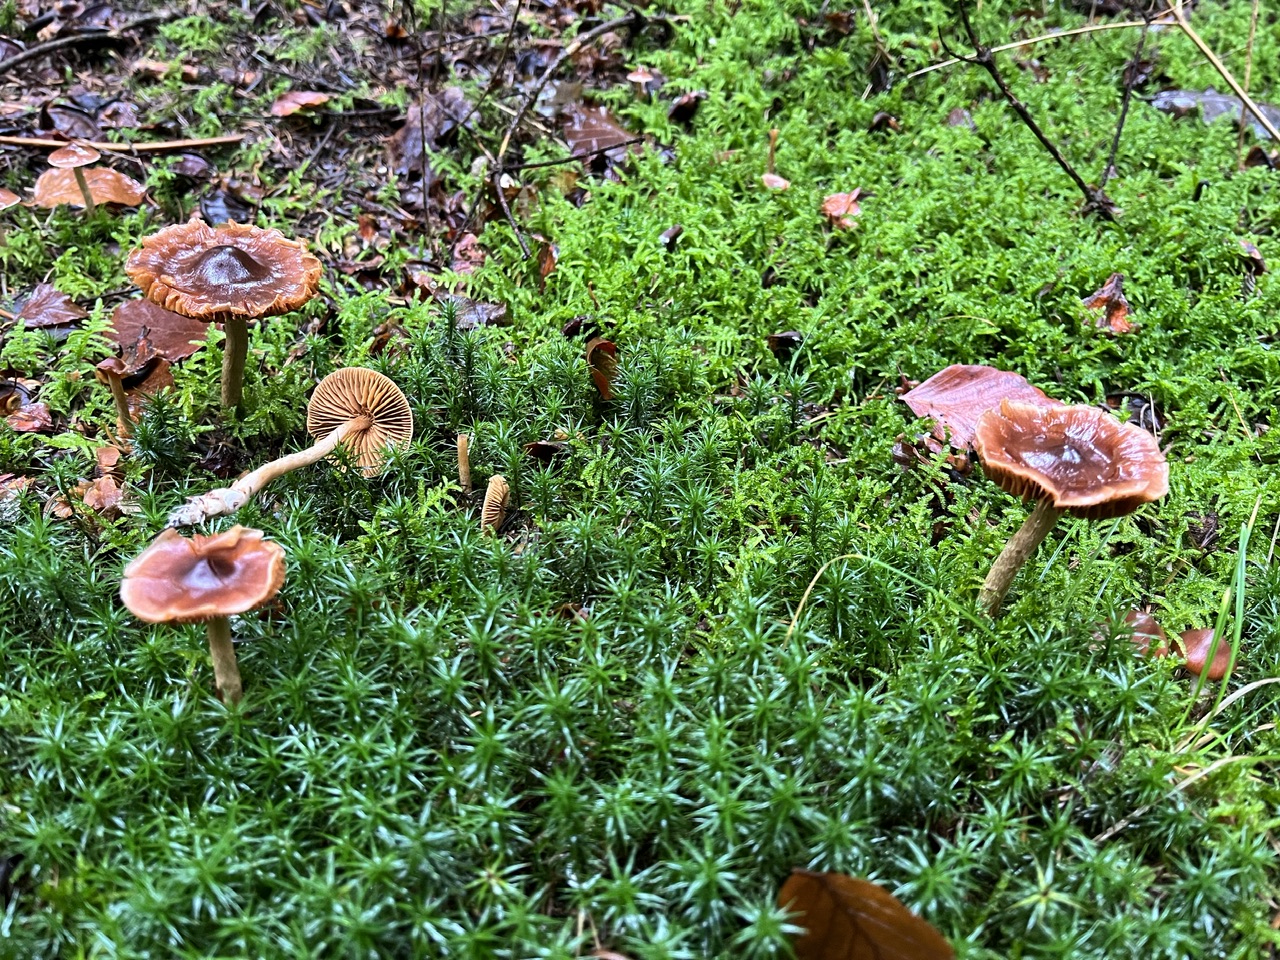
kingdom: Fungi
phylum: Basidiomycota
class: Agaricomycetes
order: Agaricales
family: Cortinariaceae
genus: Cortinarius
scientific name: Cortinarius
